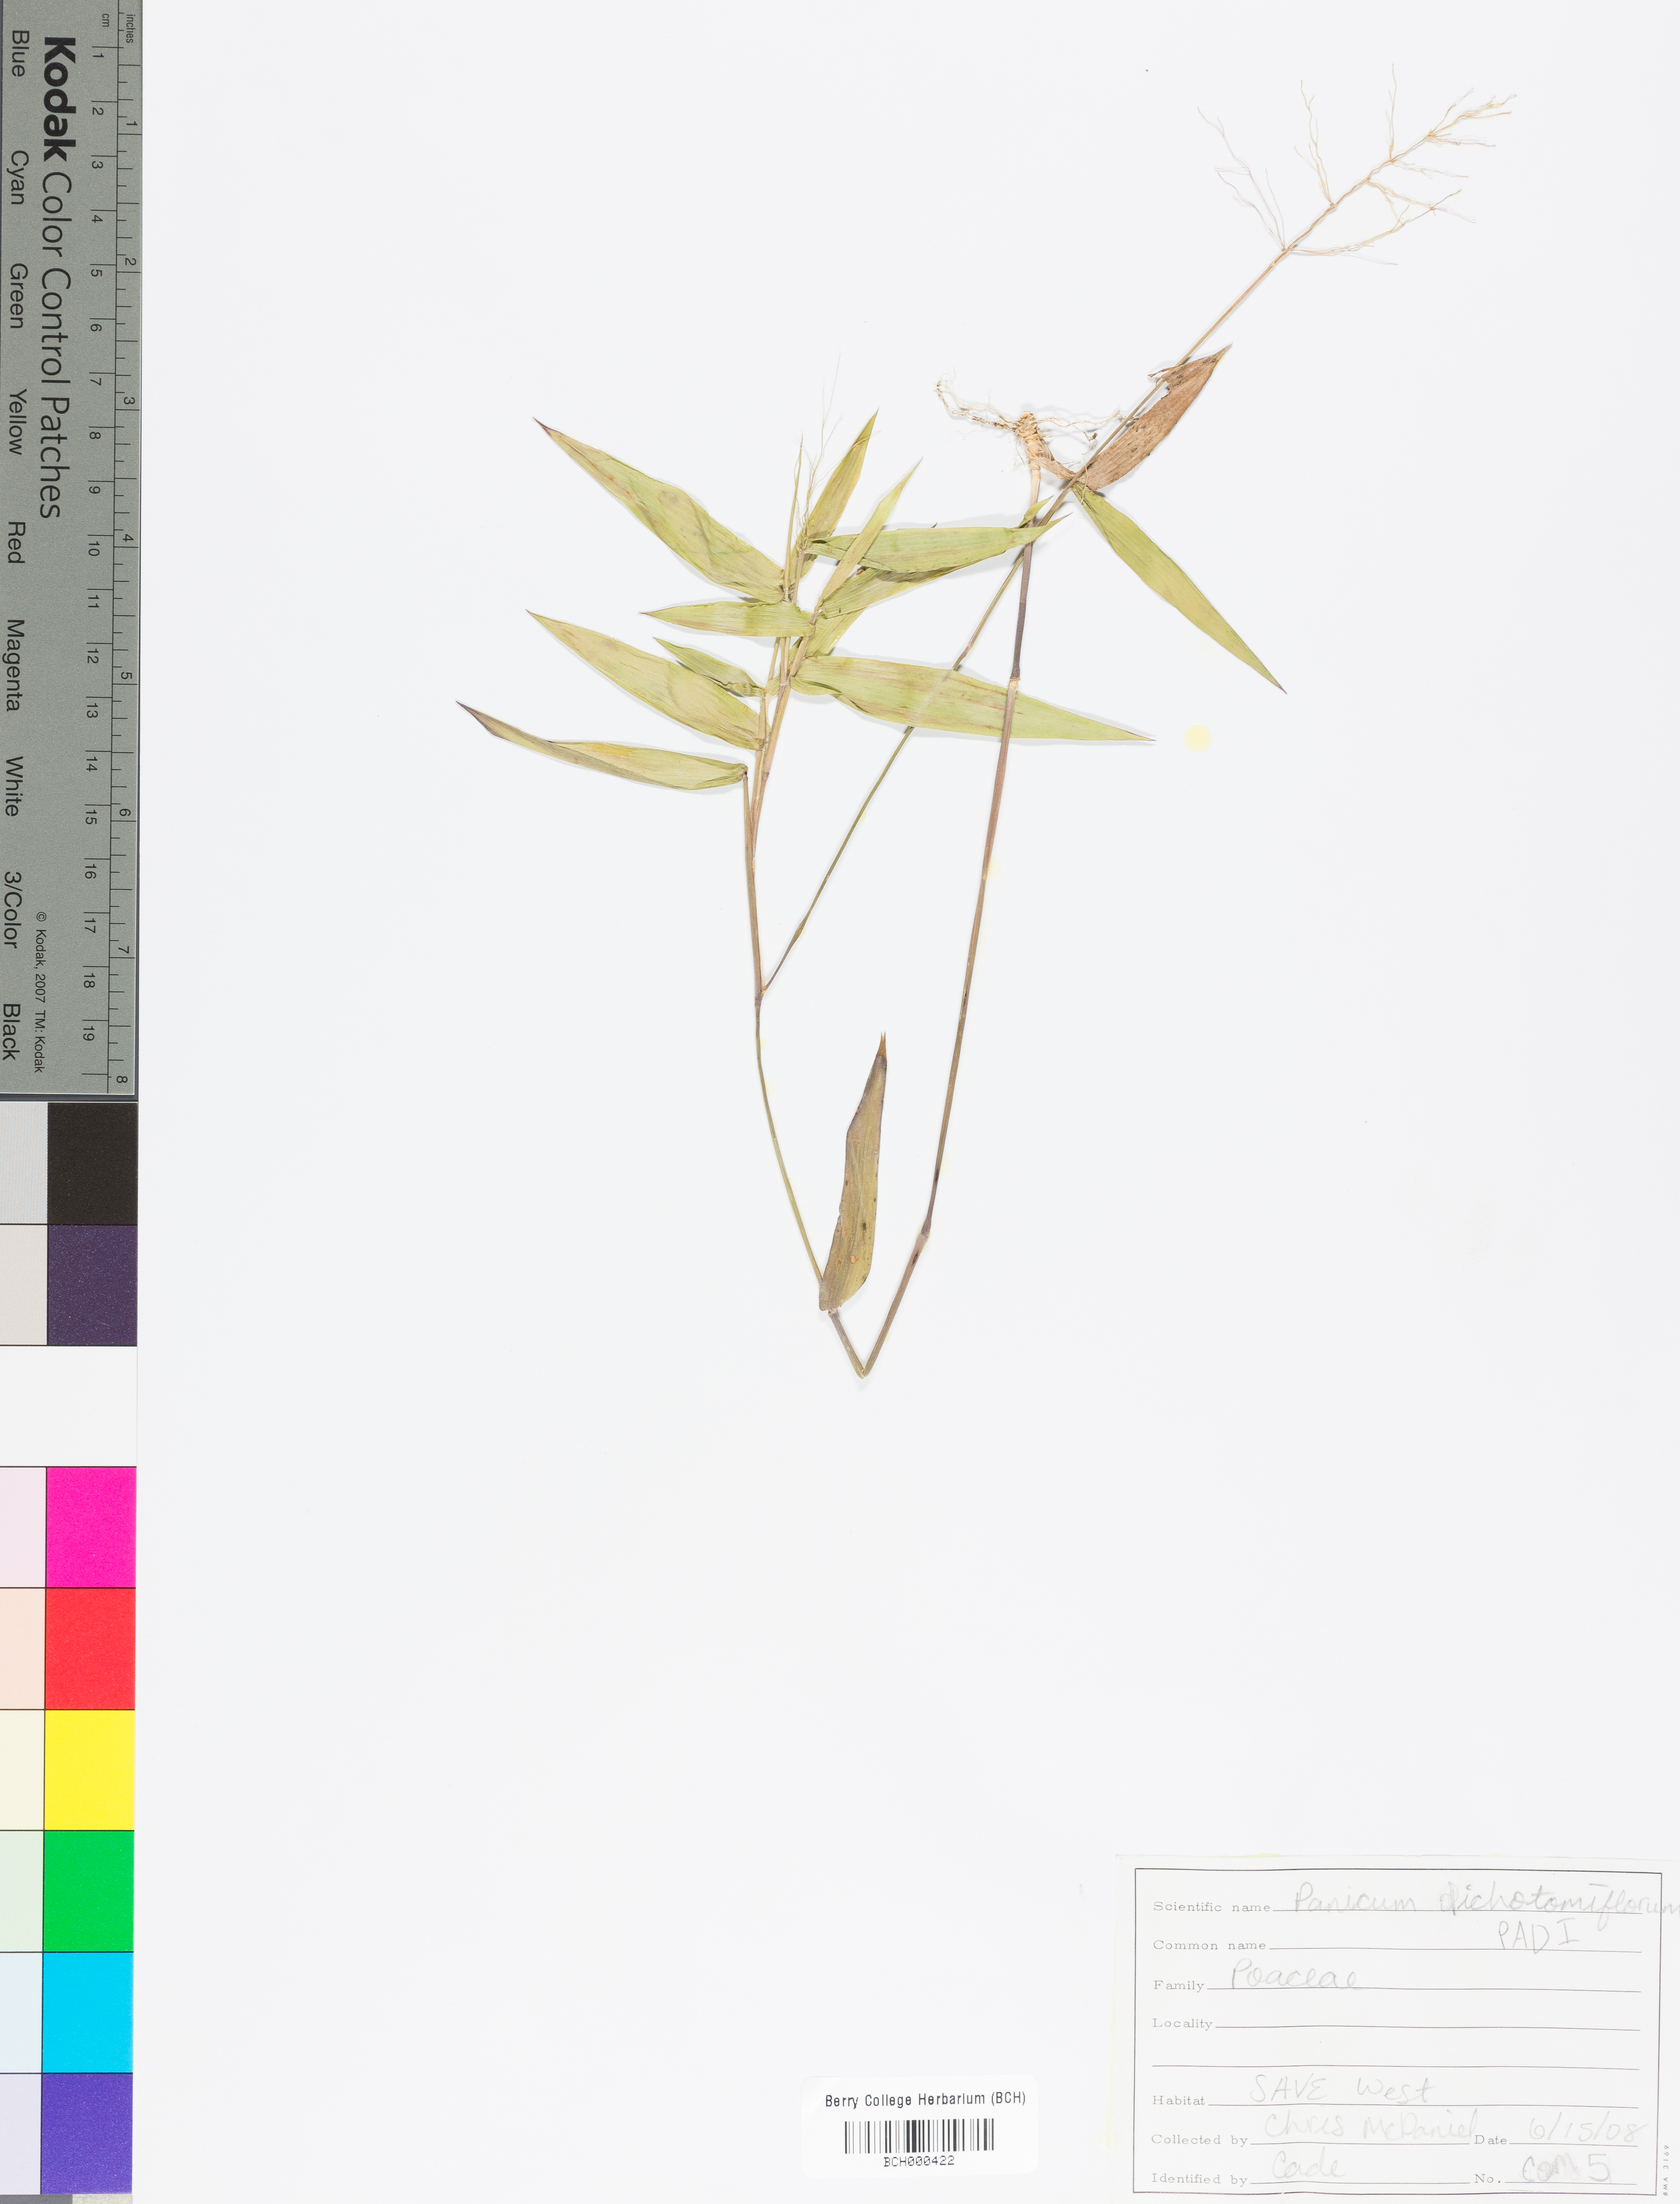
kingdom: Plantae
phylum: Tracheophyta
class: Liliopsida
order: Poales
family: Poaceae
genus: Panicum
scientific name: Panicum dichotomiflorum
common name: Autumn millet
